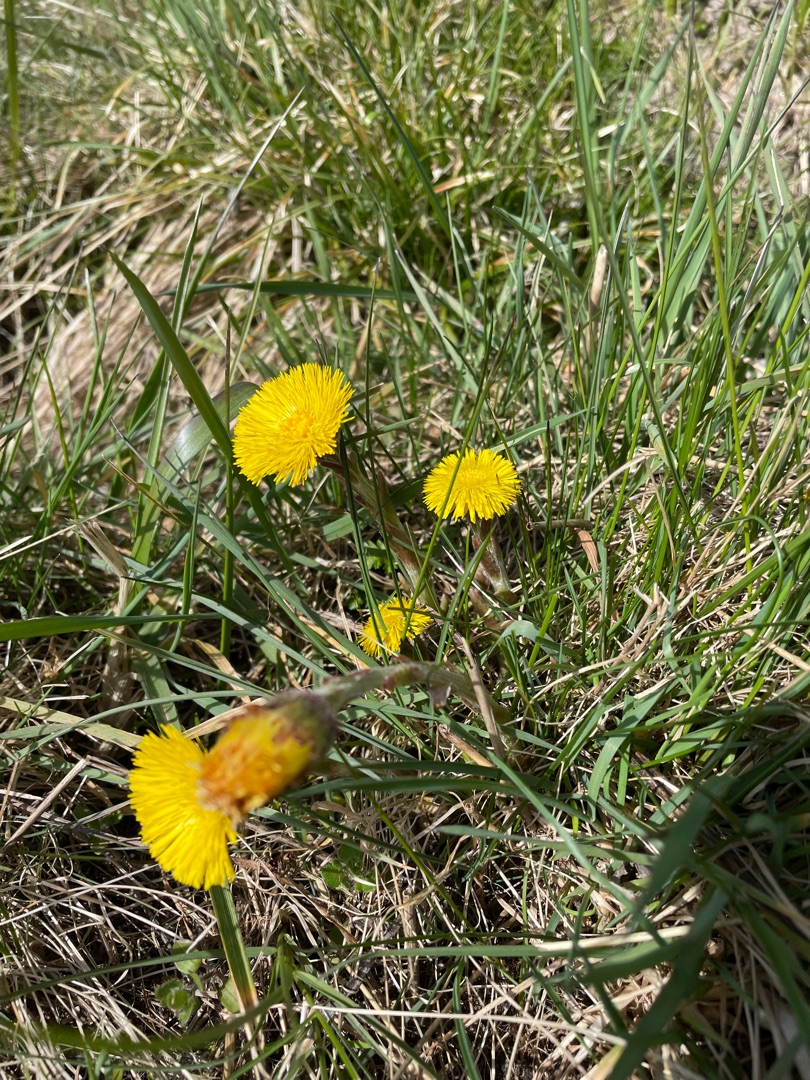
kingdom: Plantae
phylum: Tracheophyta
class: Magnoliopsida
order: Asterales
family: Asteraceae
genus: Tussilago
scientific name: Tussilago farfara
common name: Følfod
